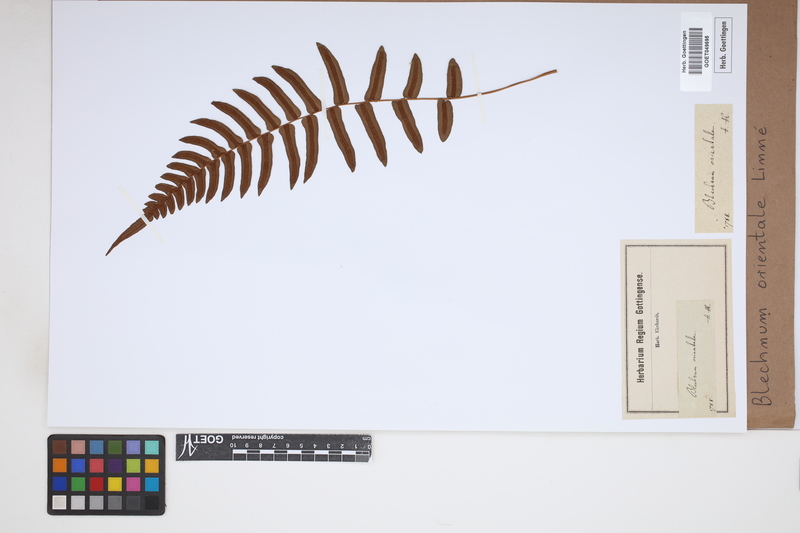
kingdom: Plantae
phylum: Tracheophyta
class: Polypodiopsida
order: Polypodiales
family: Blechnaceae
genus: Blechnopsis
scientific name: Blechnopsis orientalis
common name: Oriental blechnum
